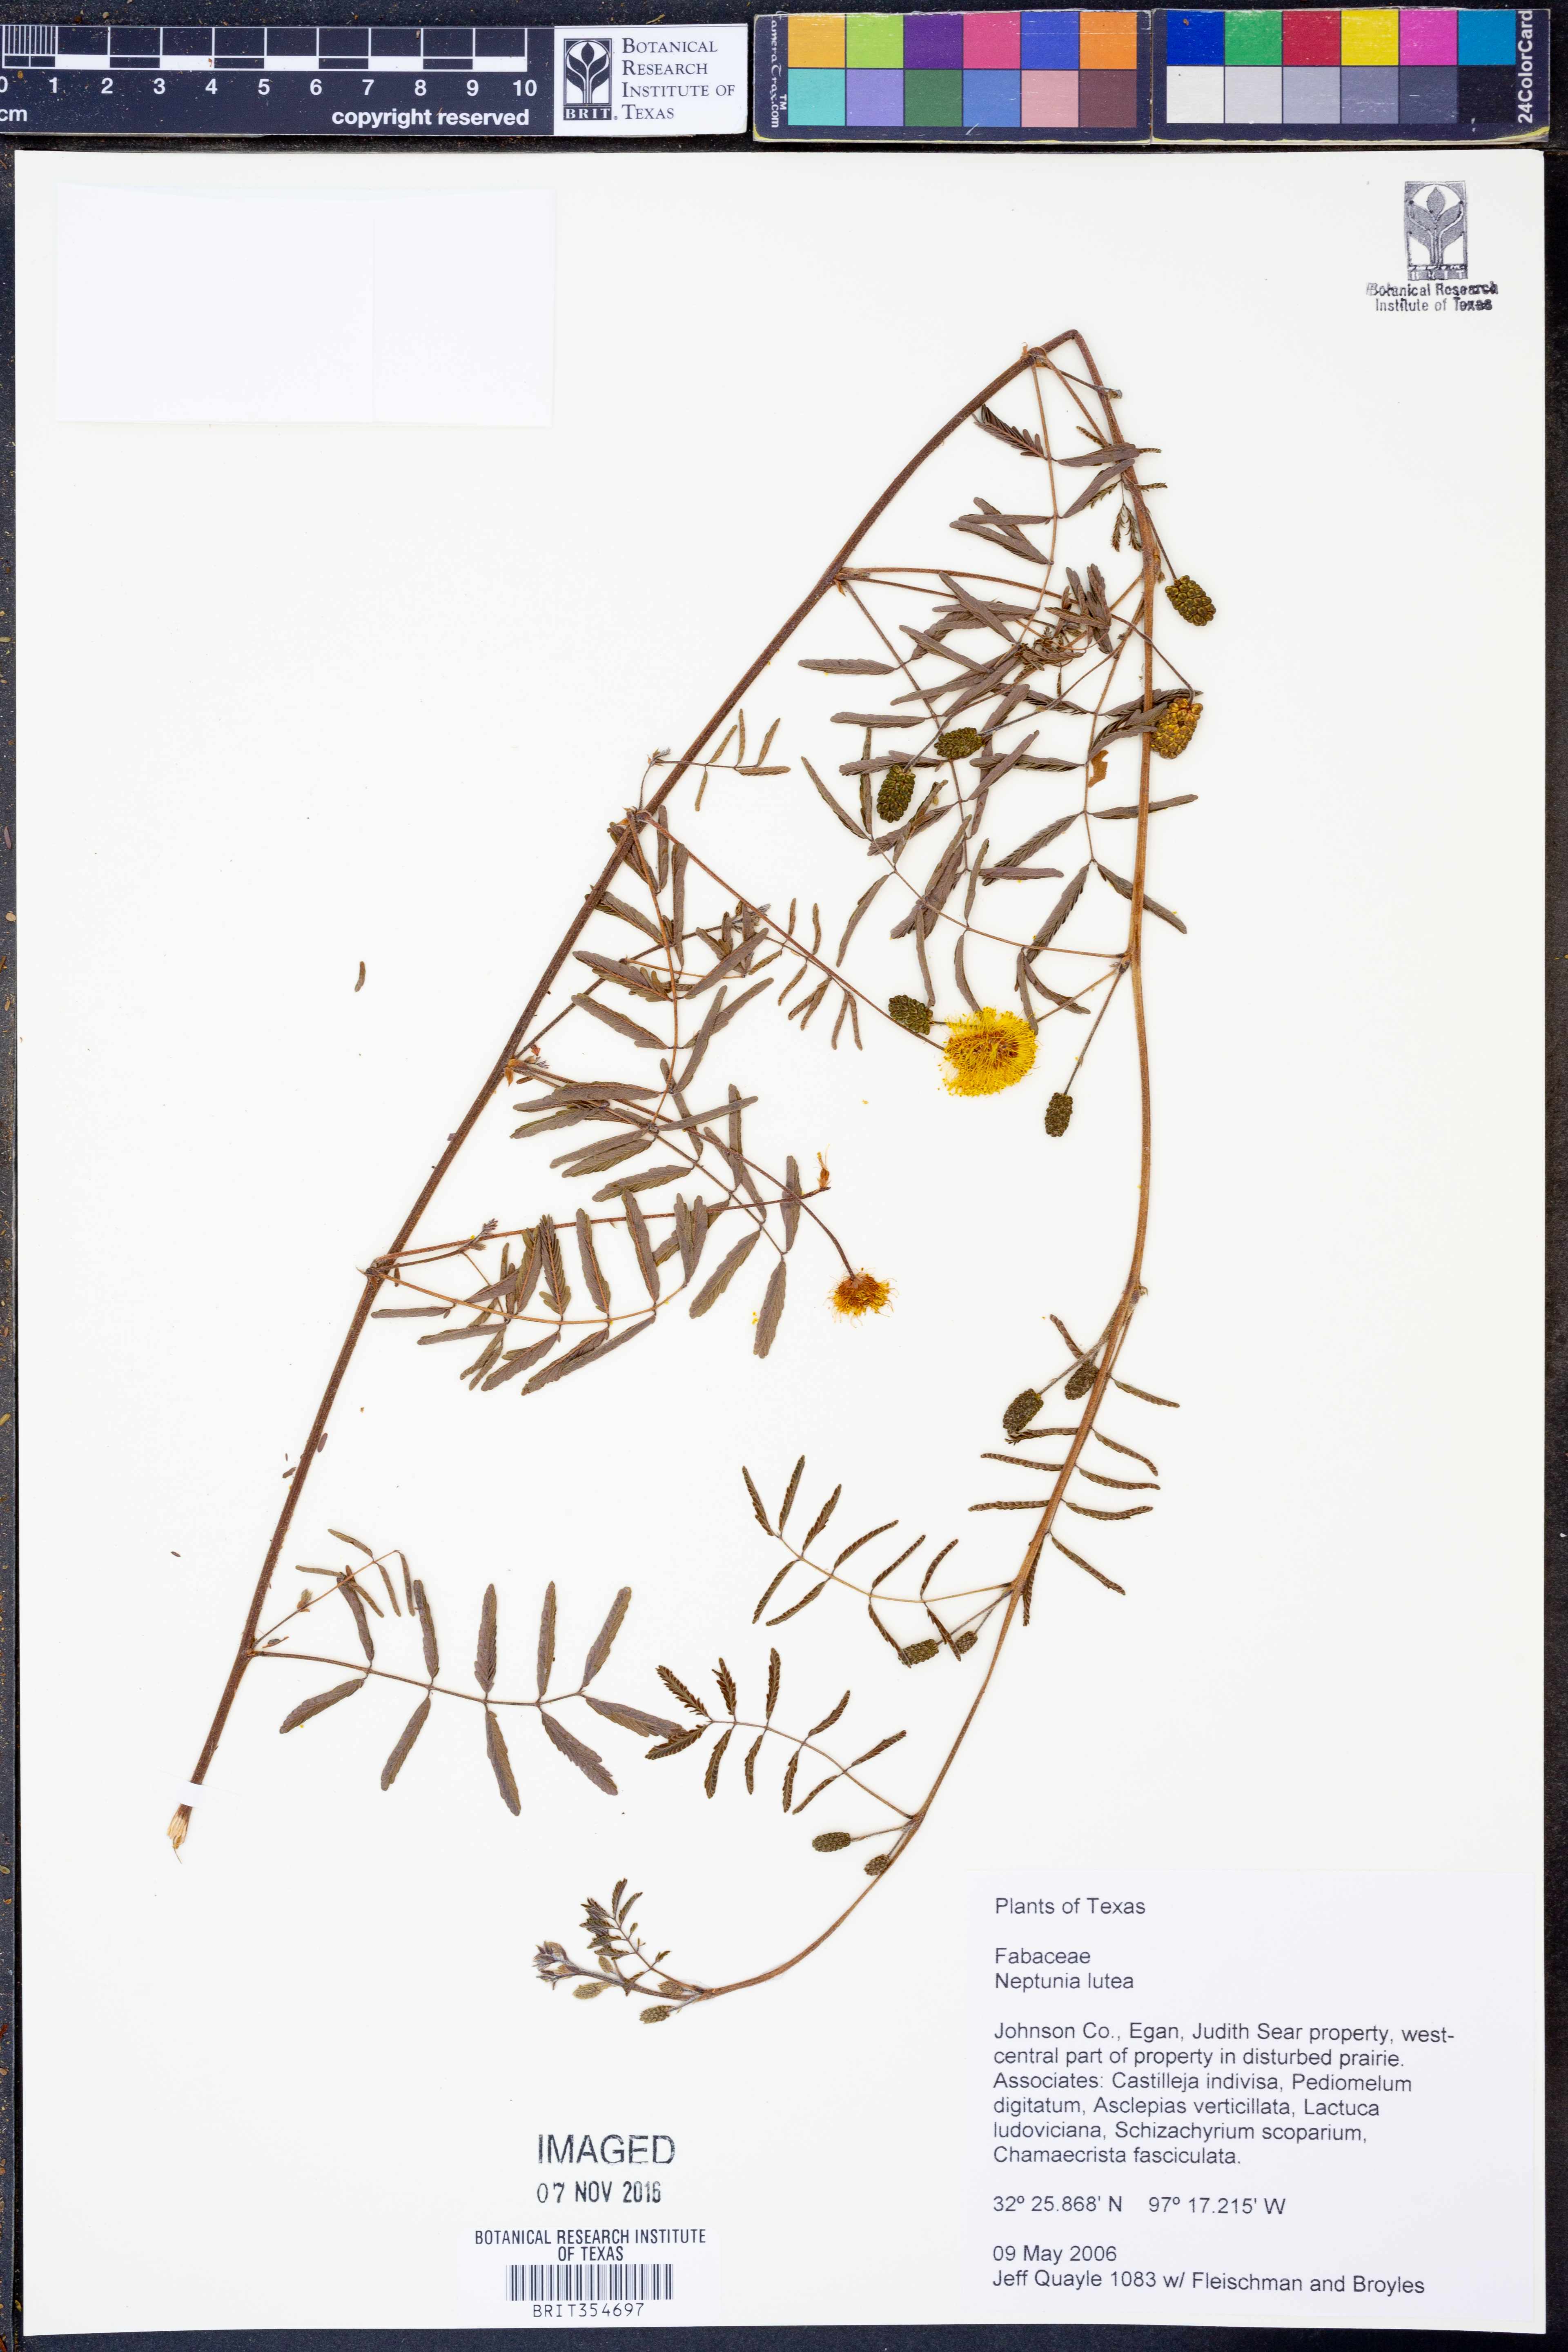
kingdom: Plantae
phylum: Tracheophyta
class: Magnoliopsida
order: Fabales
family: Fabaceae
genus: Neptunia
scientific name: Neptunia lutea
